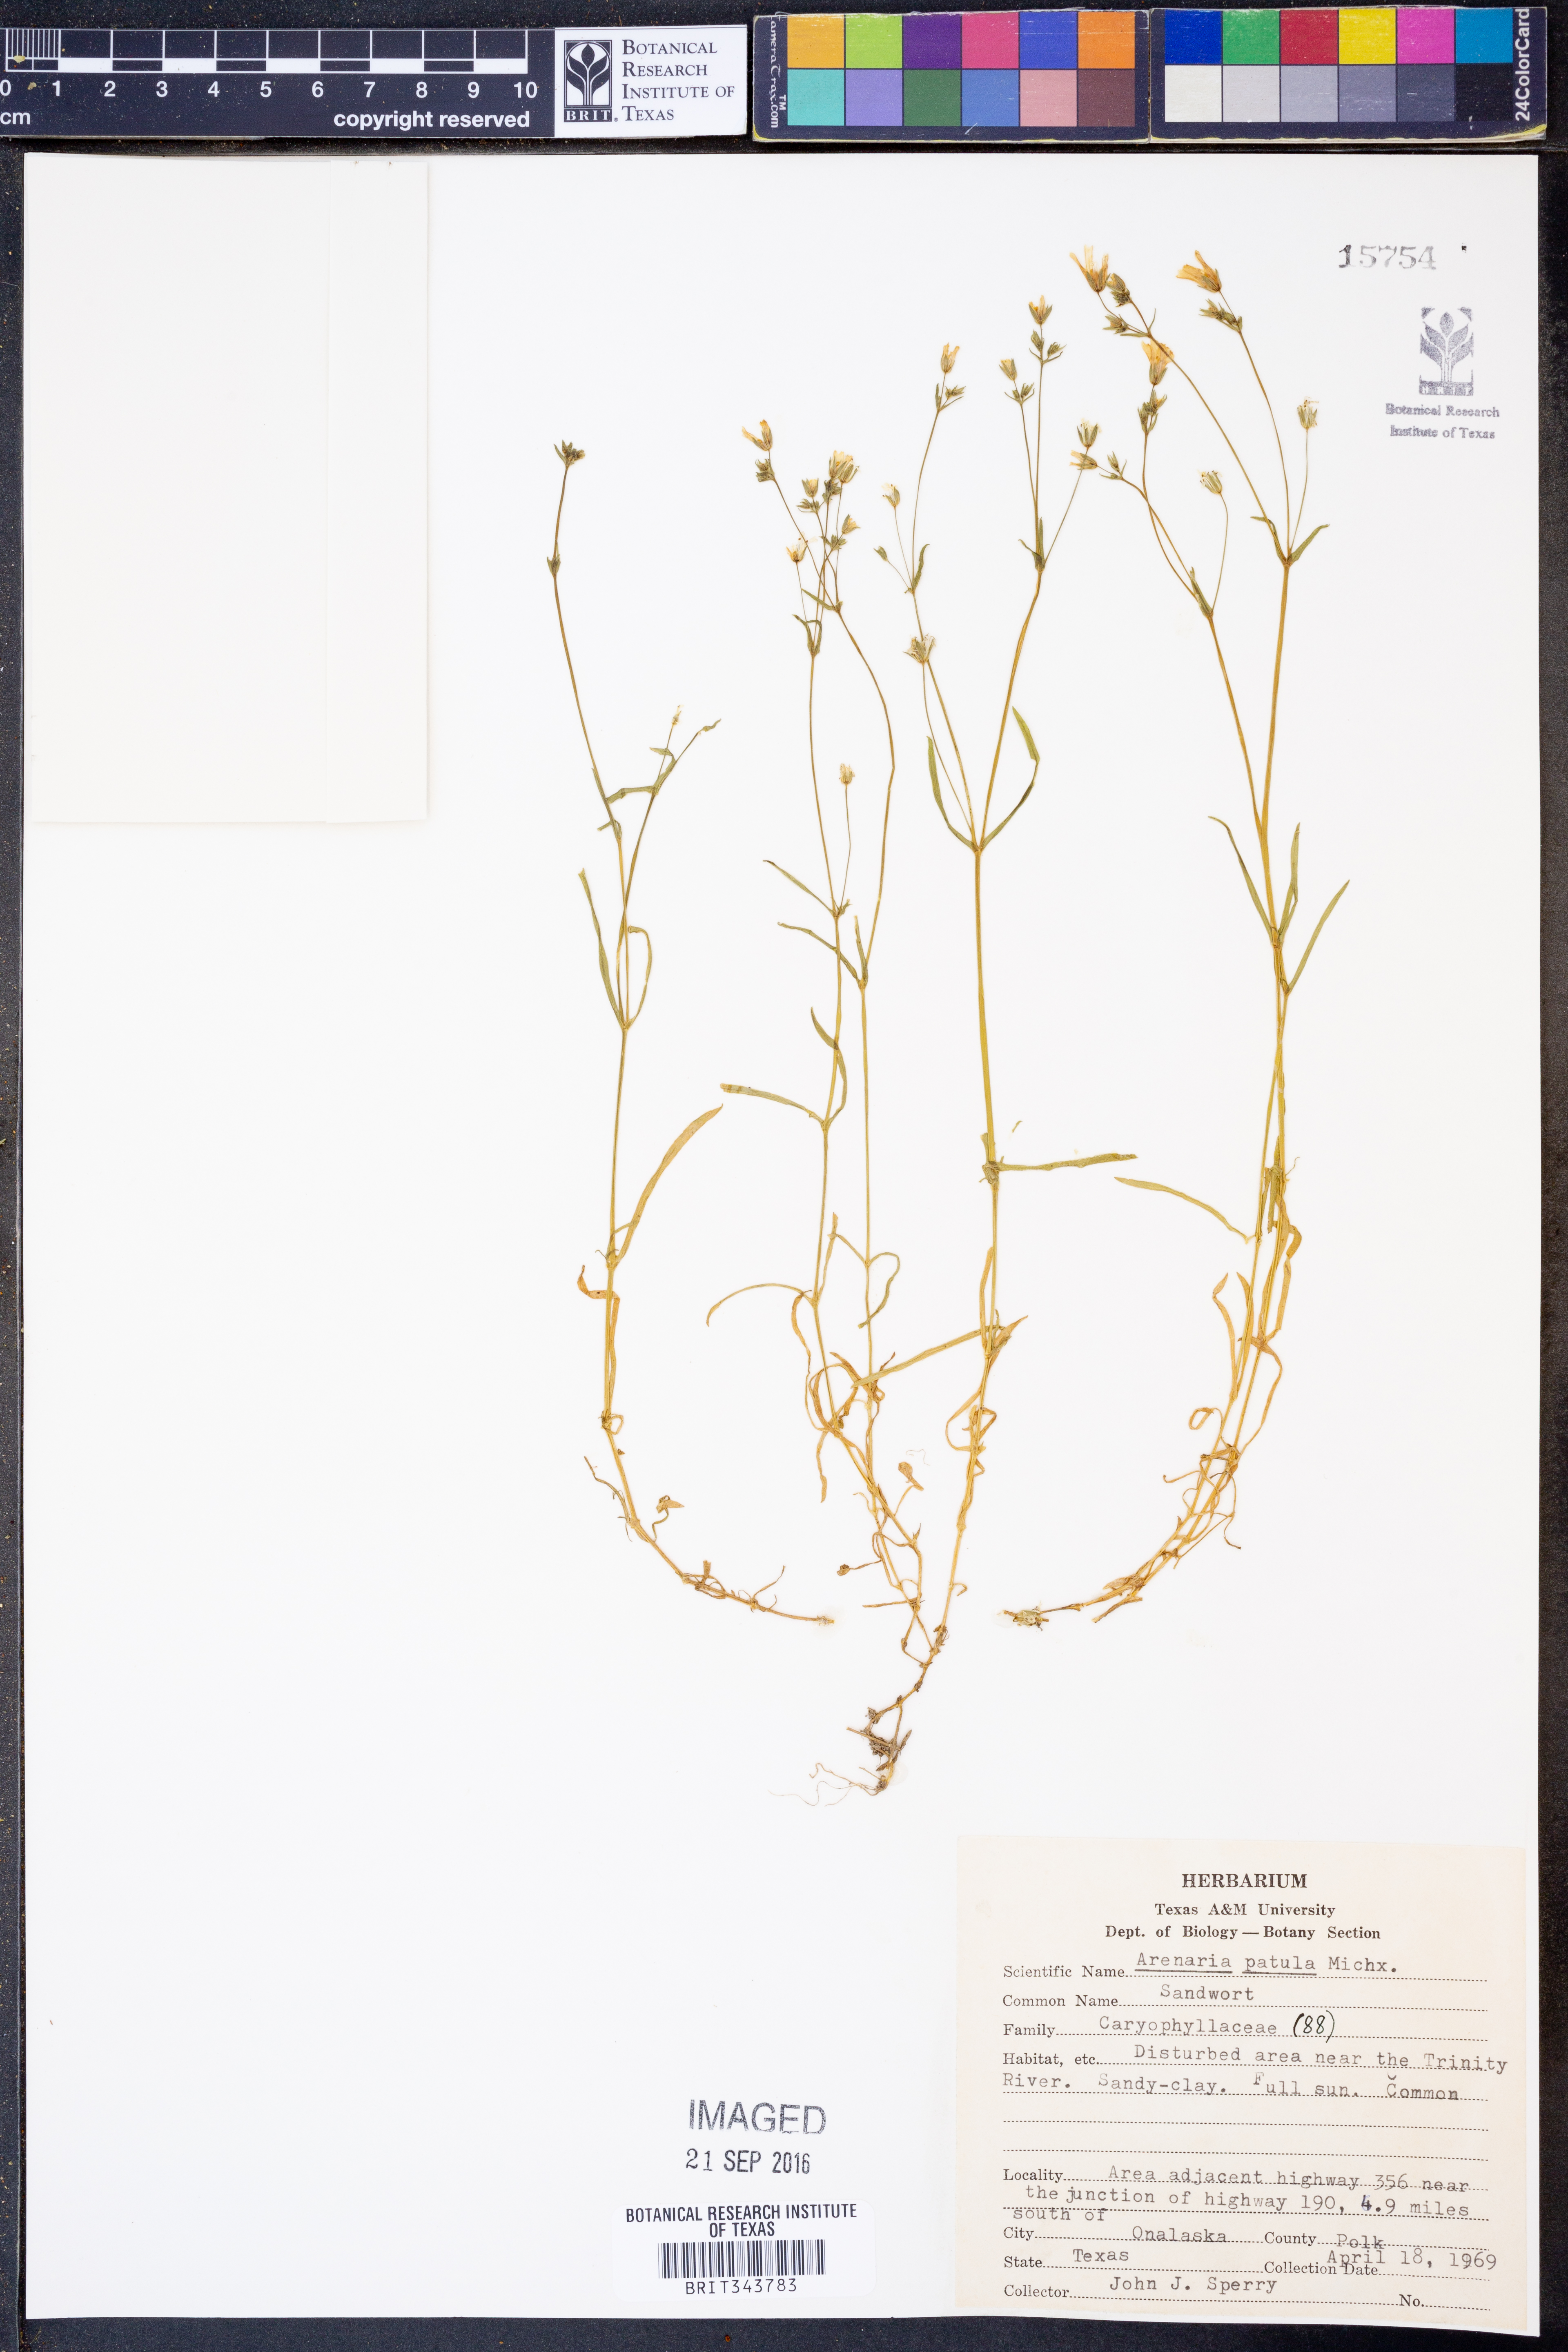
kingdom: Plantae
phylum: Tracheophyta
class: Magnoliopsida
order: Caryophyllales
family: Caryophyllaceae
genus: Mononeuria
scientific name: Mononeuria patula
